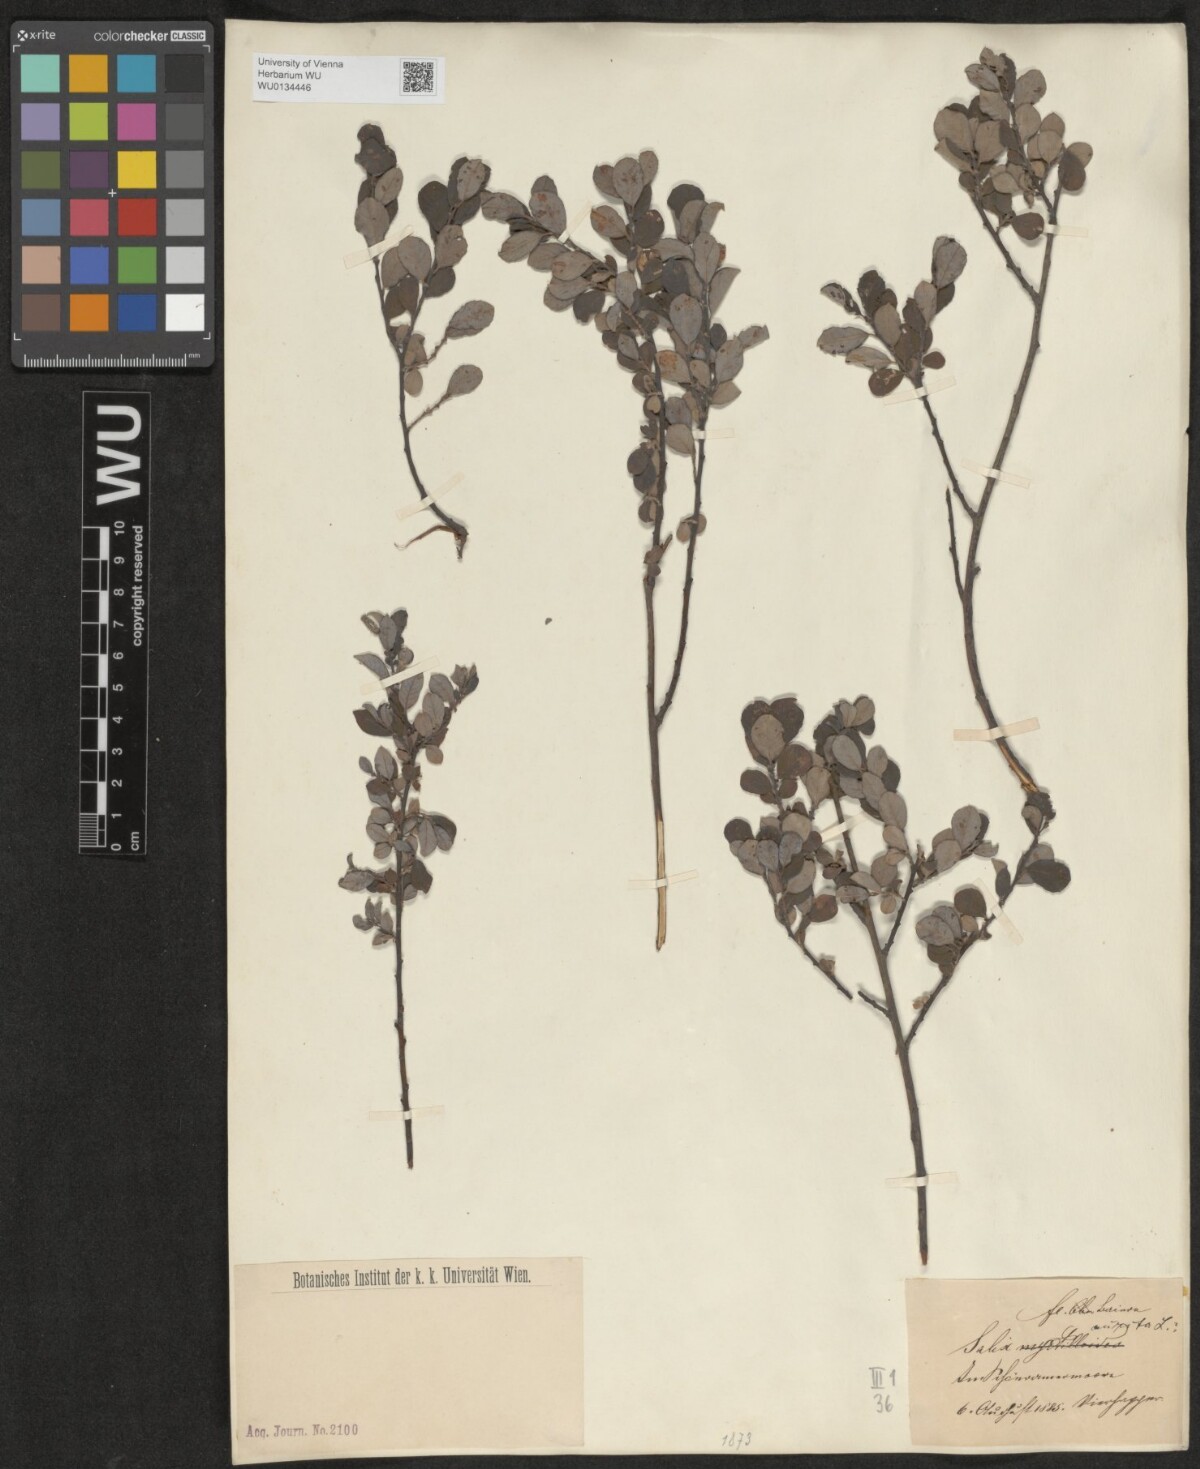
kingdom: Plantae
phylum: Tracheophyta
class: Magnoliopsida
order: Malpighiales
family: Salicaceae
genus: Salix
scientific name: Salix aurita
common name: Eared willow
